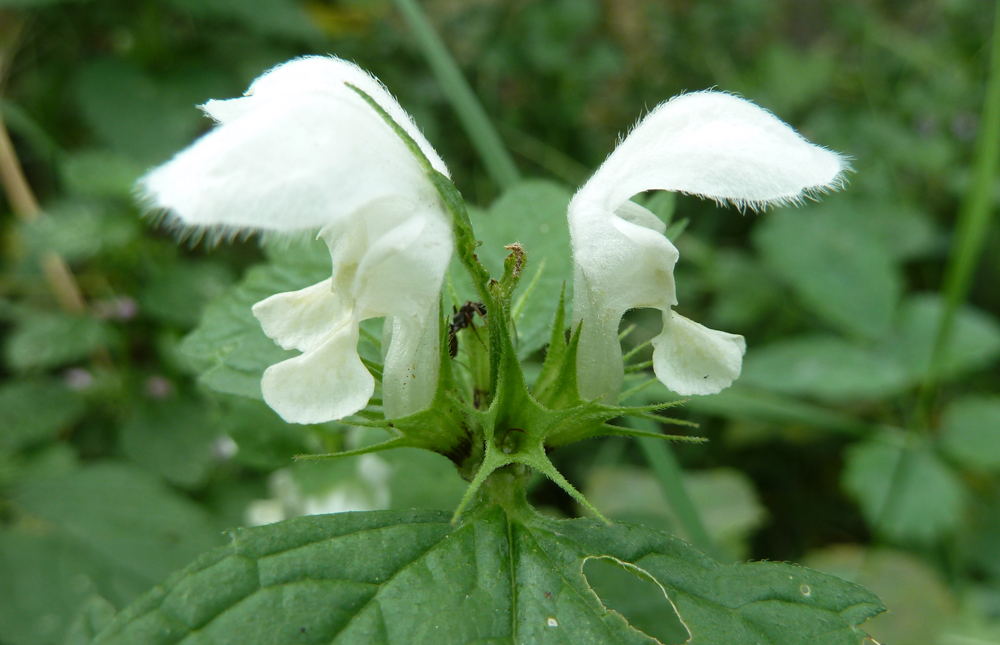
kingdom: Plantae
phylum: Tracheophyta
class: Magnoliopsida
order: Lamiales
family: Lamiaceae
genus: Lamium
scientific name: Lamium album
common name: White dead-nettle
